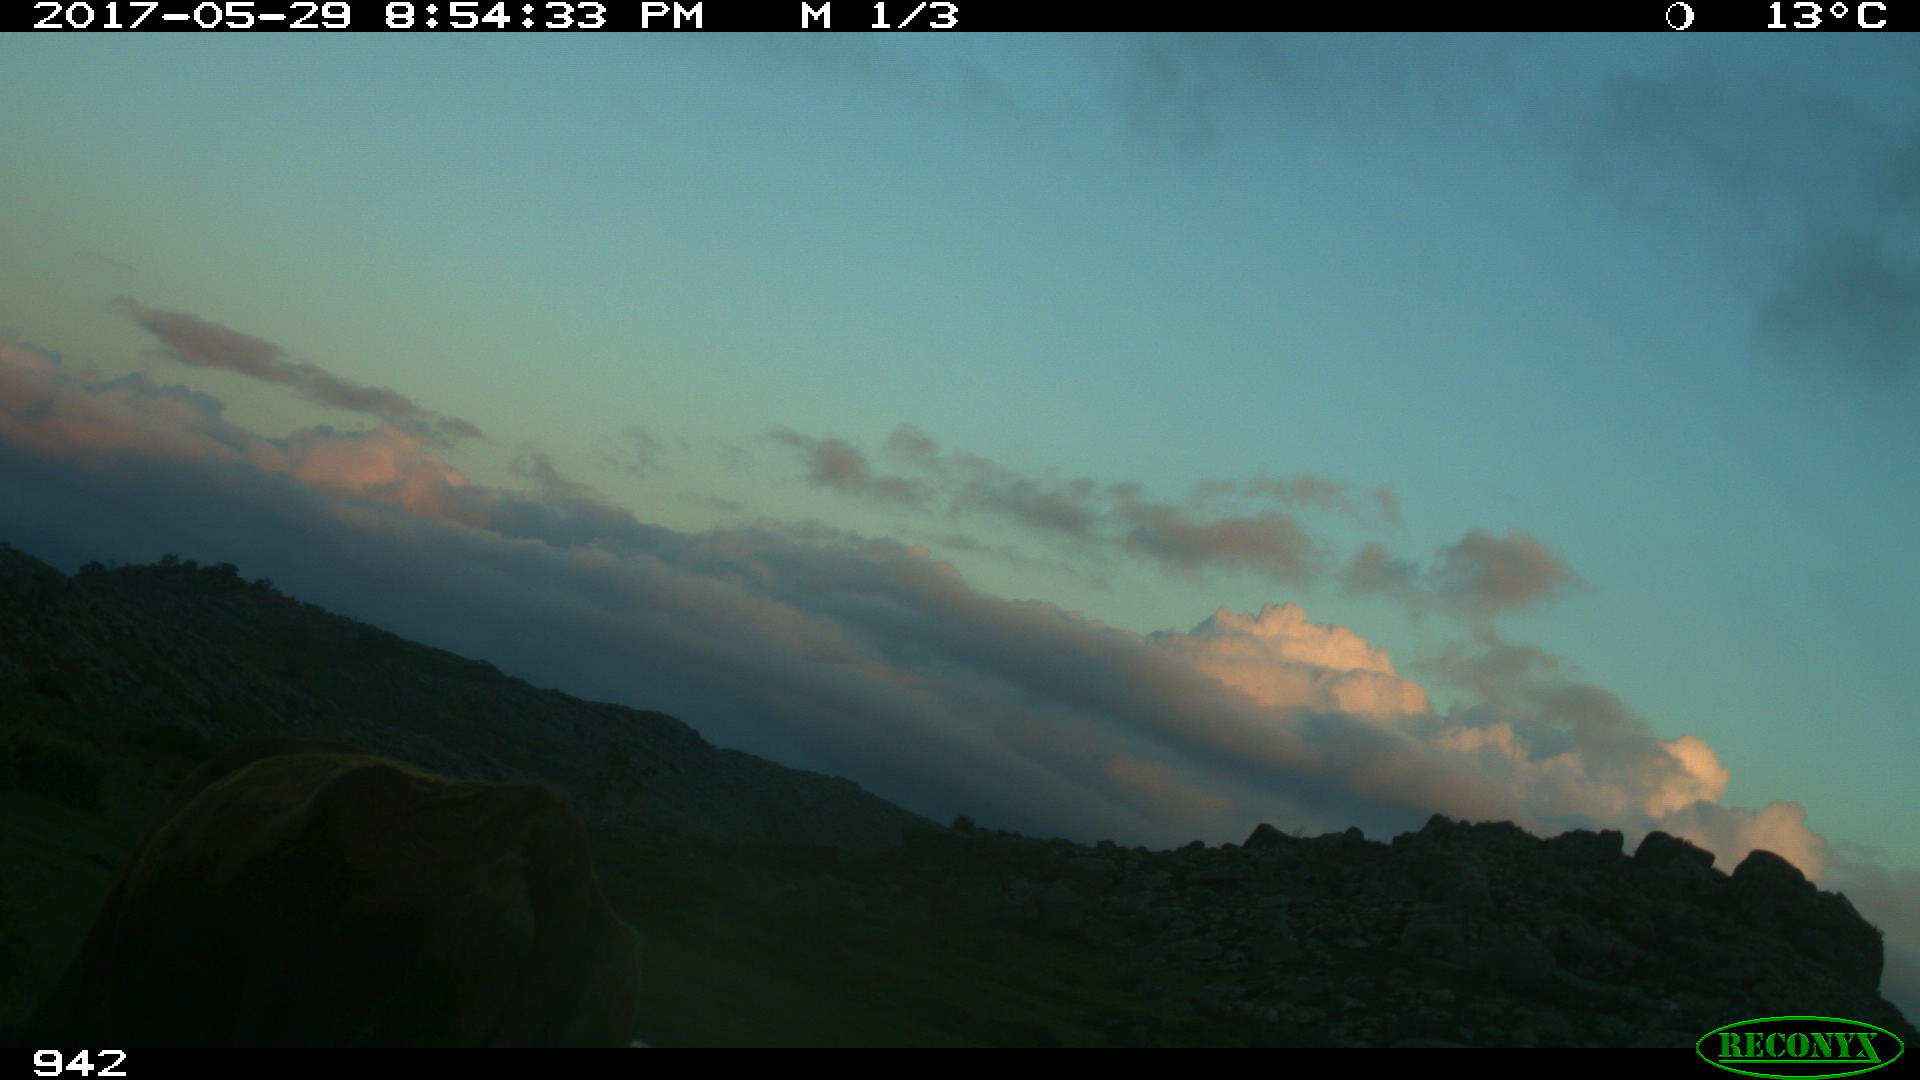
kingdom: Animalia
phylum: Chordata
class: Mammalia
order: Artiodactyla
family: Bovidae
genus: Bos
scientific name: Bos taurus
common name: Domesticated cattle
